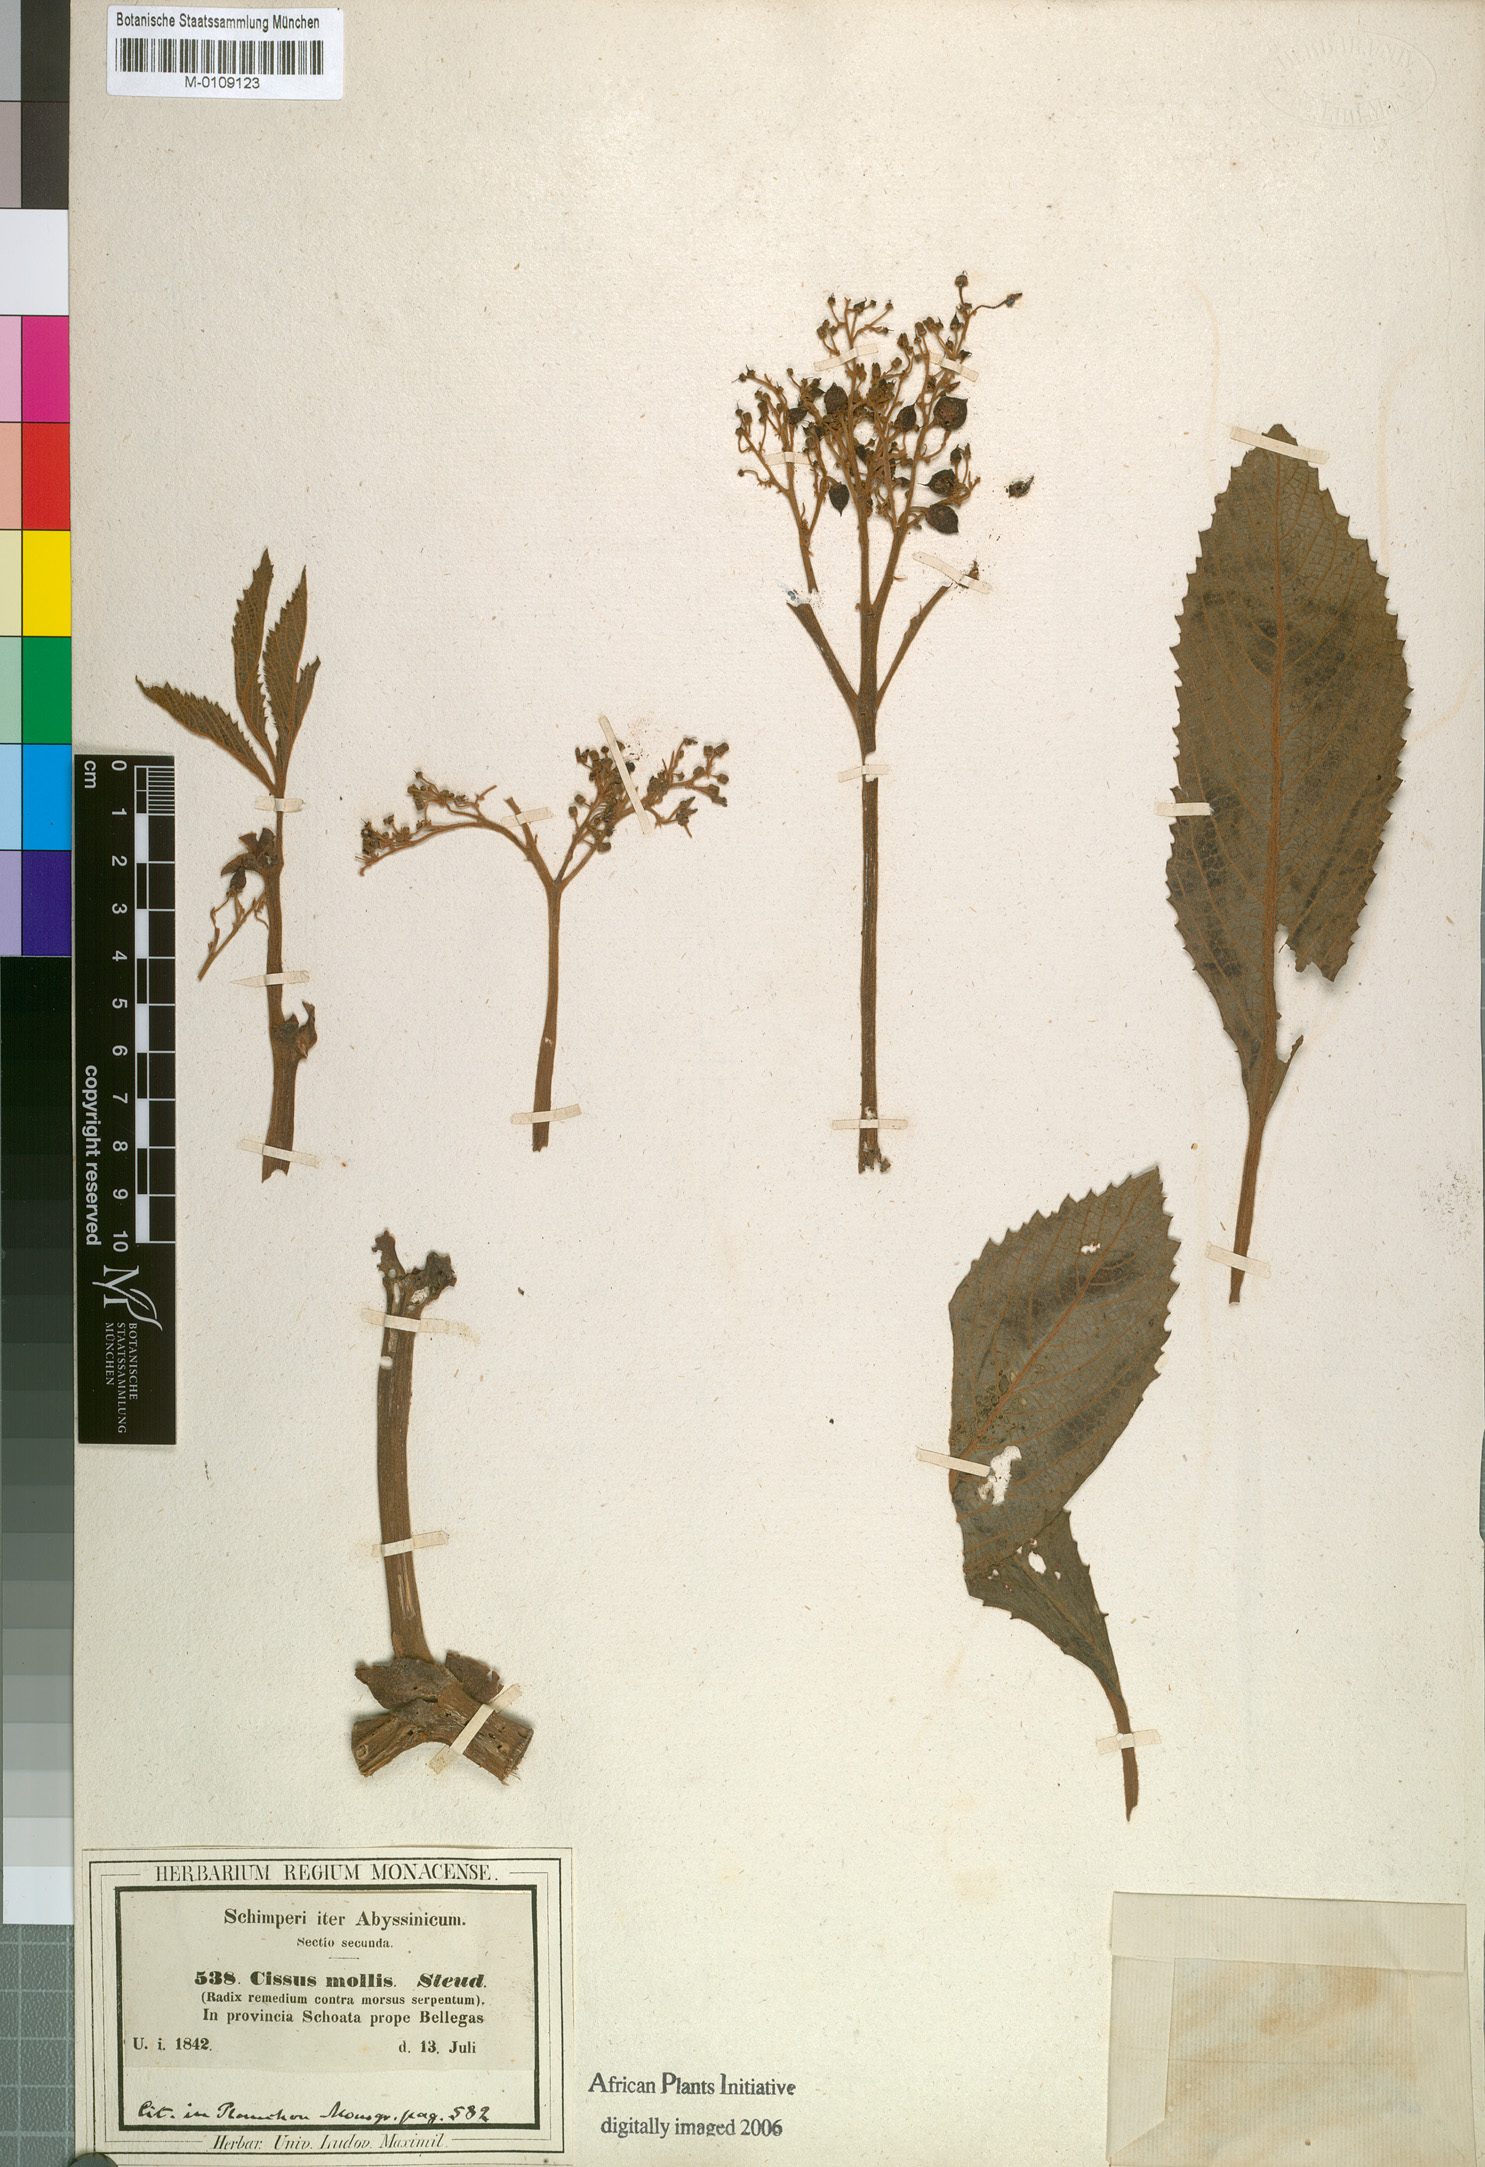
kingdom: Plantae
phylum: Tracheophyta
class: Magnoliopsida
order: Vitales
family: Vitaceae
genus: Cyphostemma
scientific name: Cyphostemma molle
